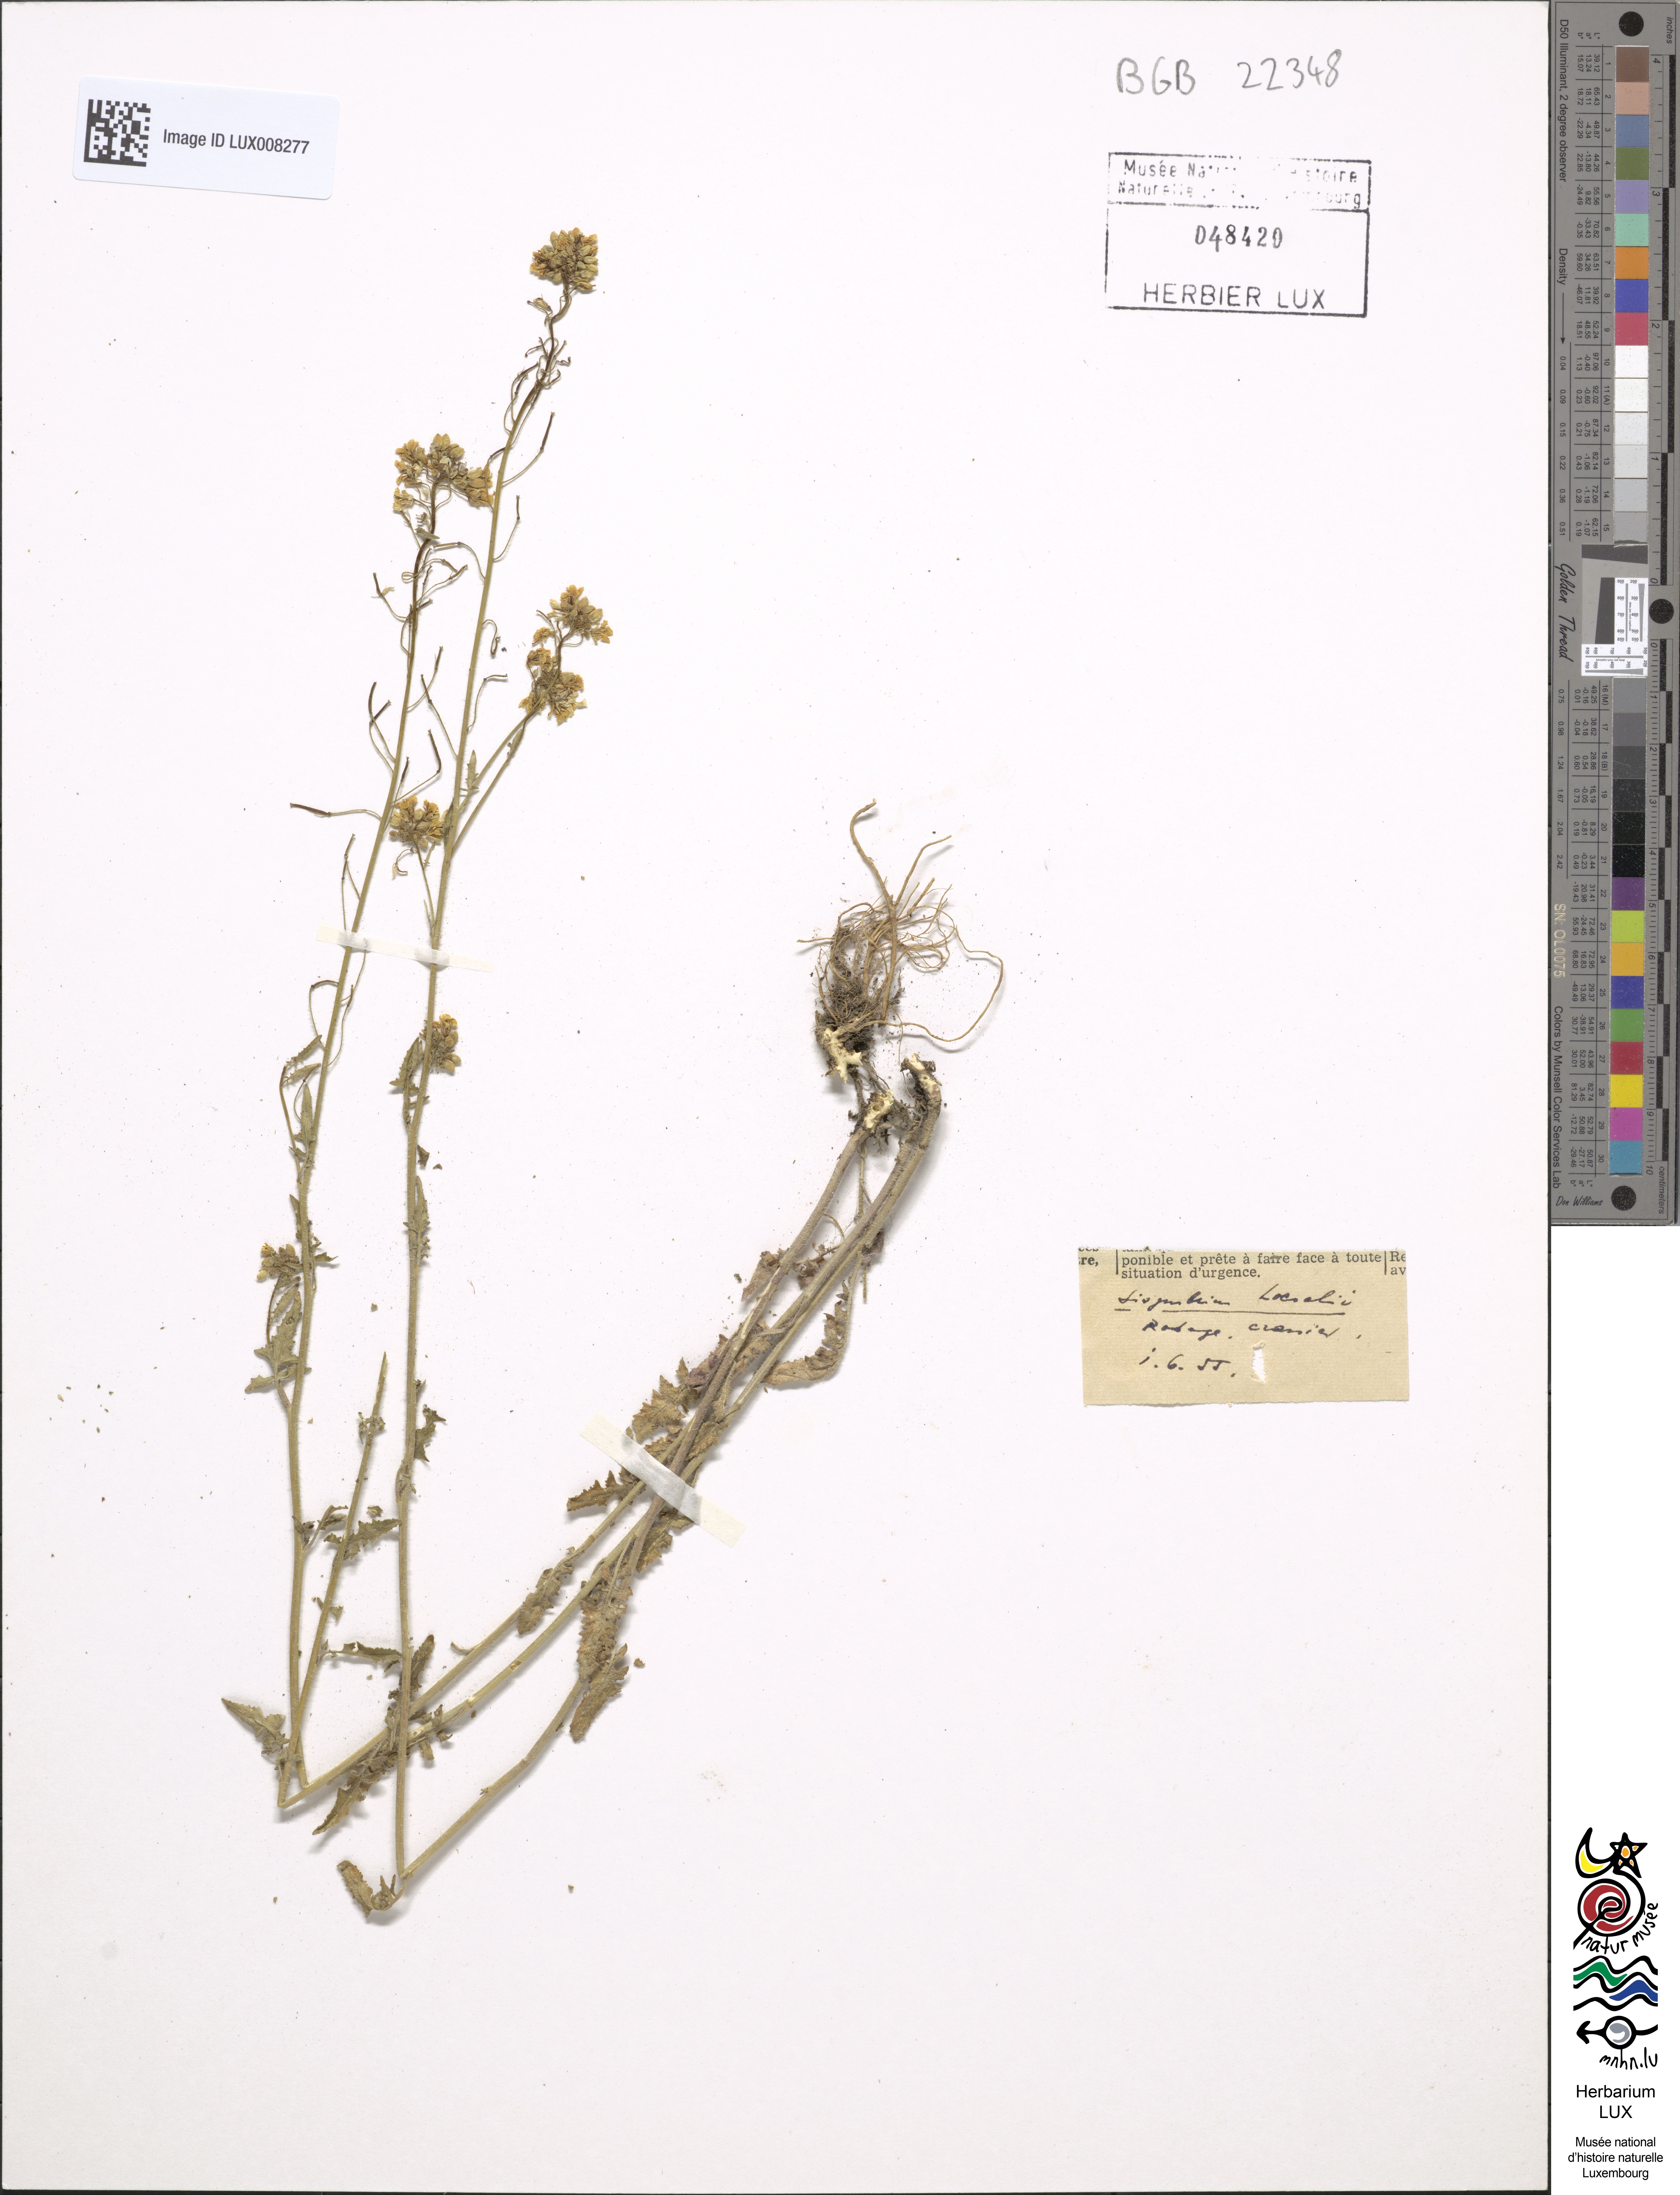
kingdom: Plantae
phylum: Tracheophyta
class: Magnoliopsida
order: Brassicales
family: Brassicaceae
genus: Sisymbrium
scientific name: Sisymbrium loeselii
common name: False london-rocket
